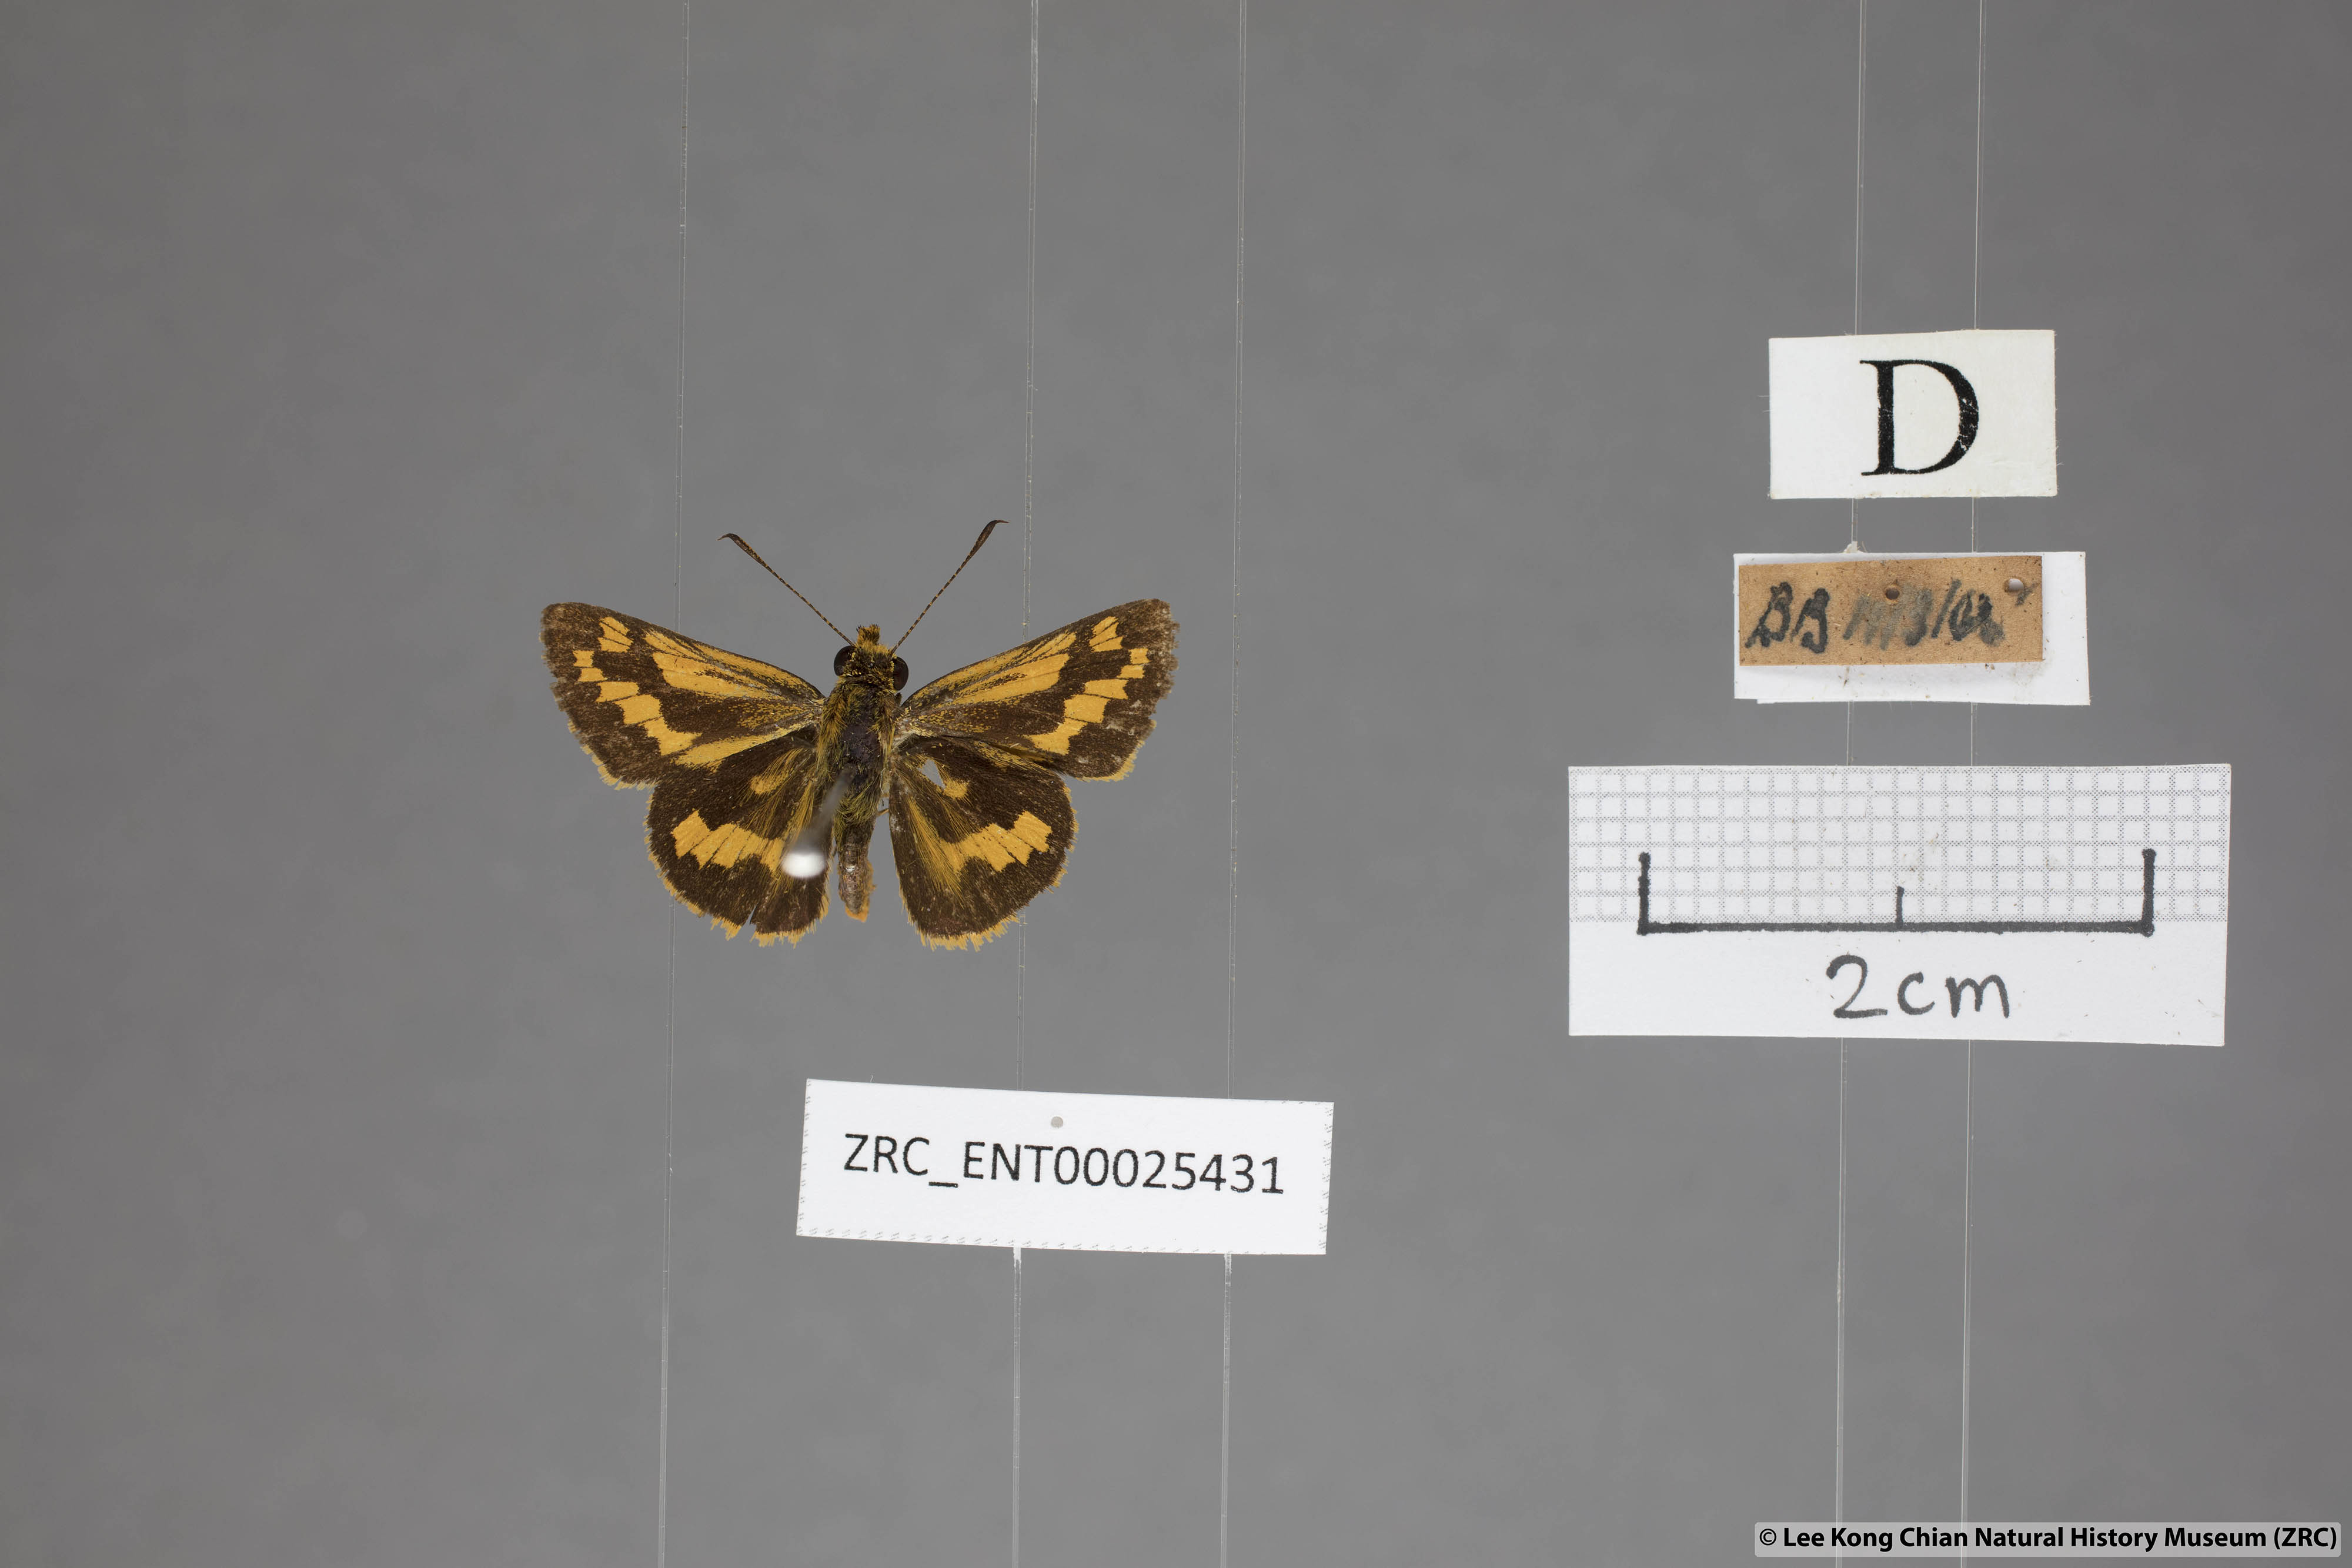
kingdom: Animalia
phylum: Arthropoda
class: Insecta
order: Lepidoptera
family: Hesperiidae
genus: Potanthus
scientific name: Potanthus omaha
